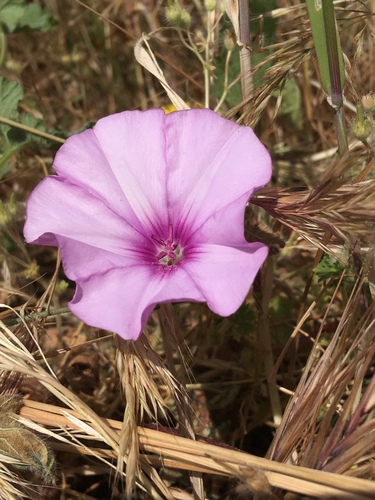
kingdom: Plantae
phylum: Tracheophyta
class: Magnoliopsida
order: Solanales
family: Convolvulaceae
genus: Convolvulus
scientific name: Convolvulus althaeoides
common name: Mallow bindweed
